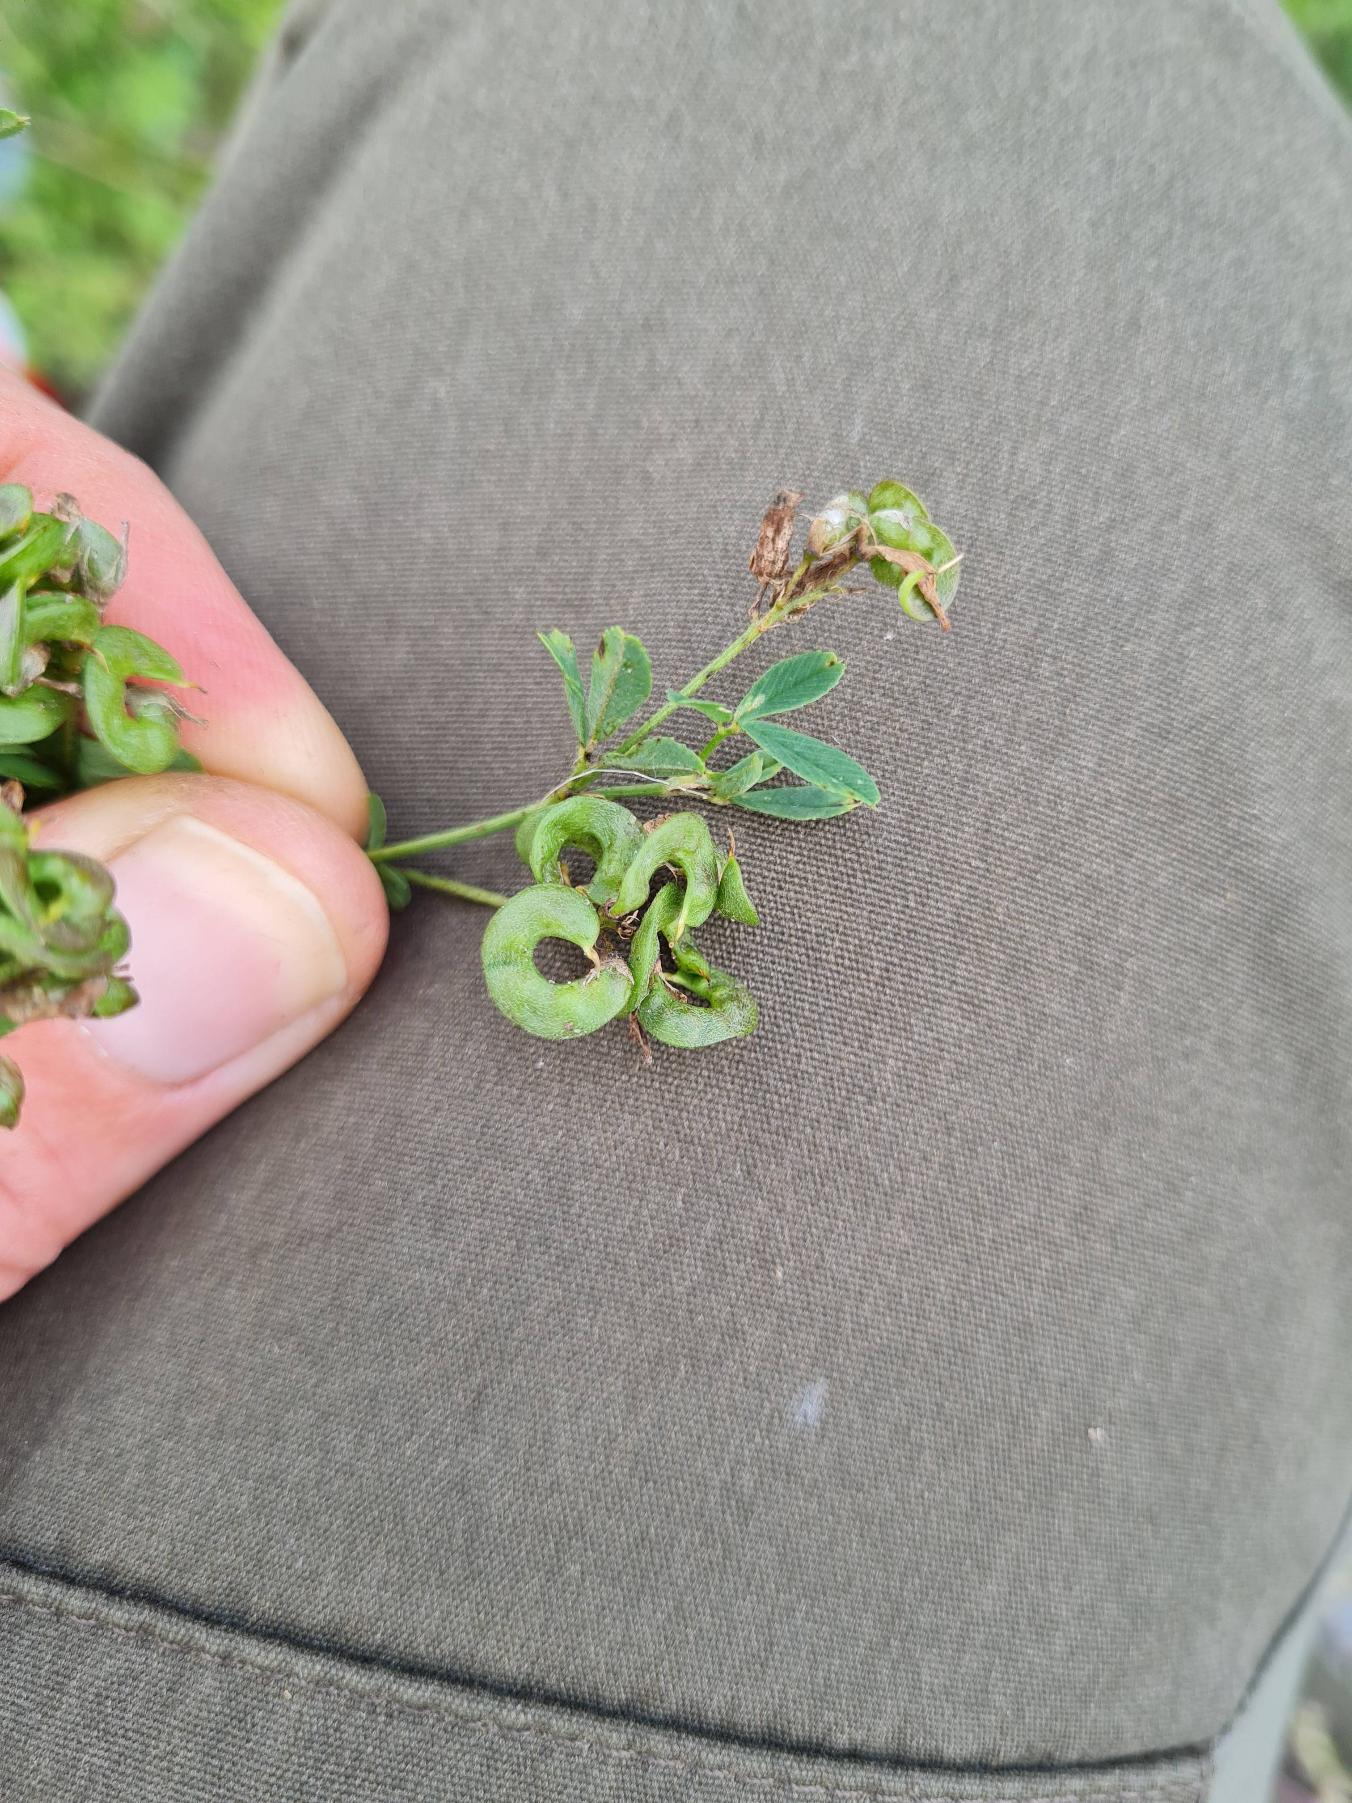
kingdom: Plantae
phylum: Tracheophyta
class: Magnoliopsida
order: Fabales
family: Fabaceae
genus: Medicago
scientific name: Medicago varia
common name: Sand-lucerne
